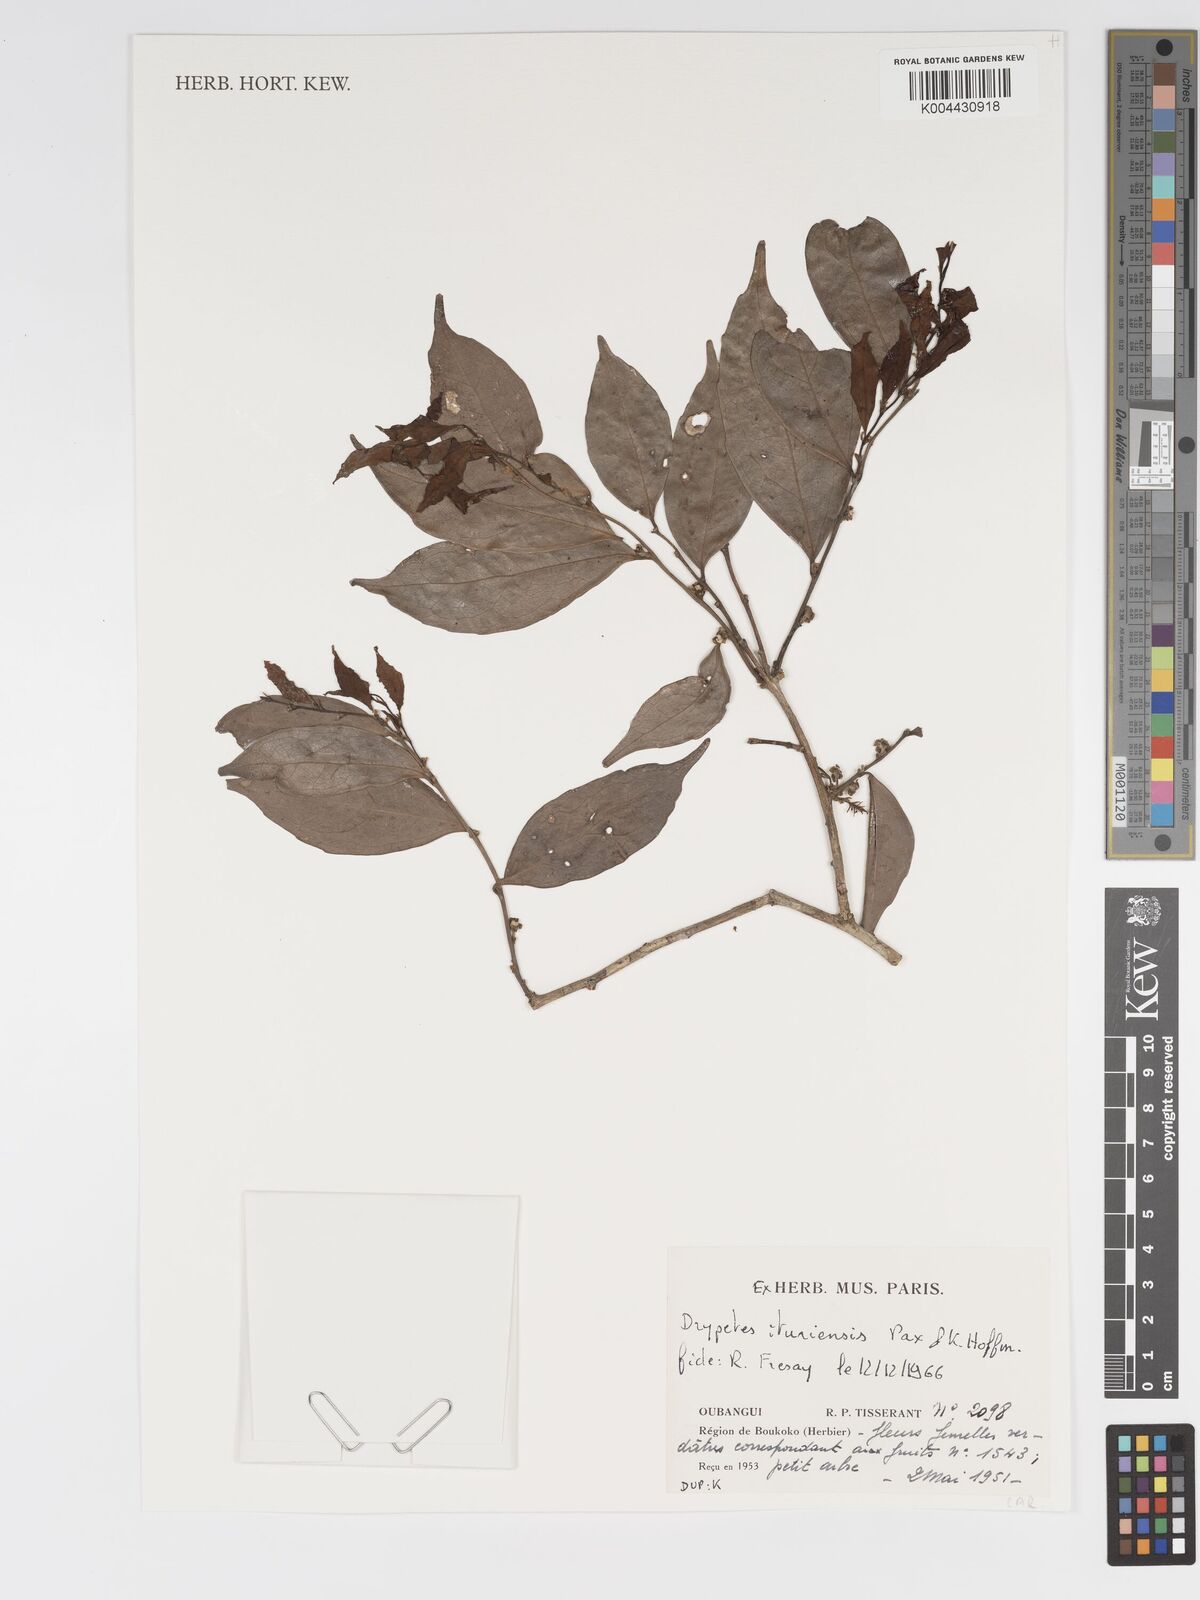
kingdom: Plantae
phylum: Tracheophyta
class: Magnoliopsida
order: Malpighiales
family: Putranjivaceae
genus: Drypetes
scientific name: Drypetes ituriensis
